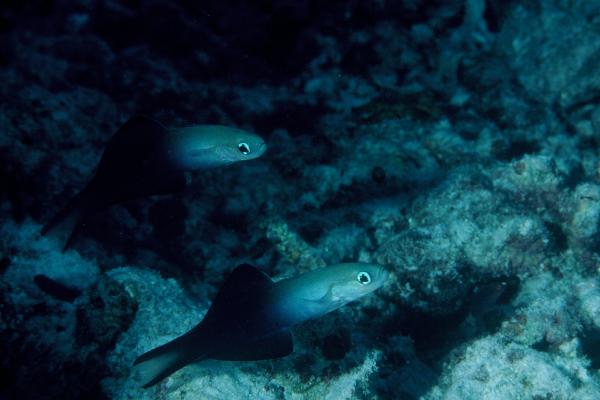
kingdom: Animalia
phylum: Chordata
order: Perciformes
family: Microdesmidae
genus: Ptereleotris
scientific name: Ptereleotris evides
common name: Blackfin dartfish
